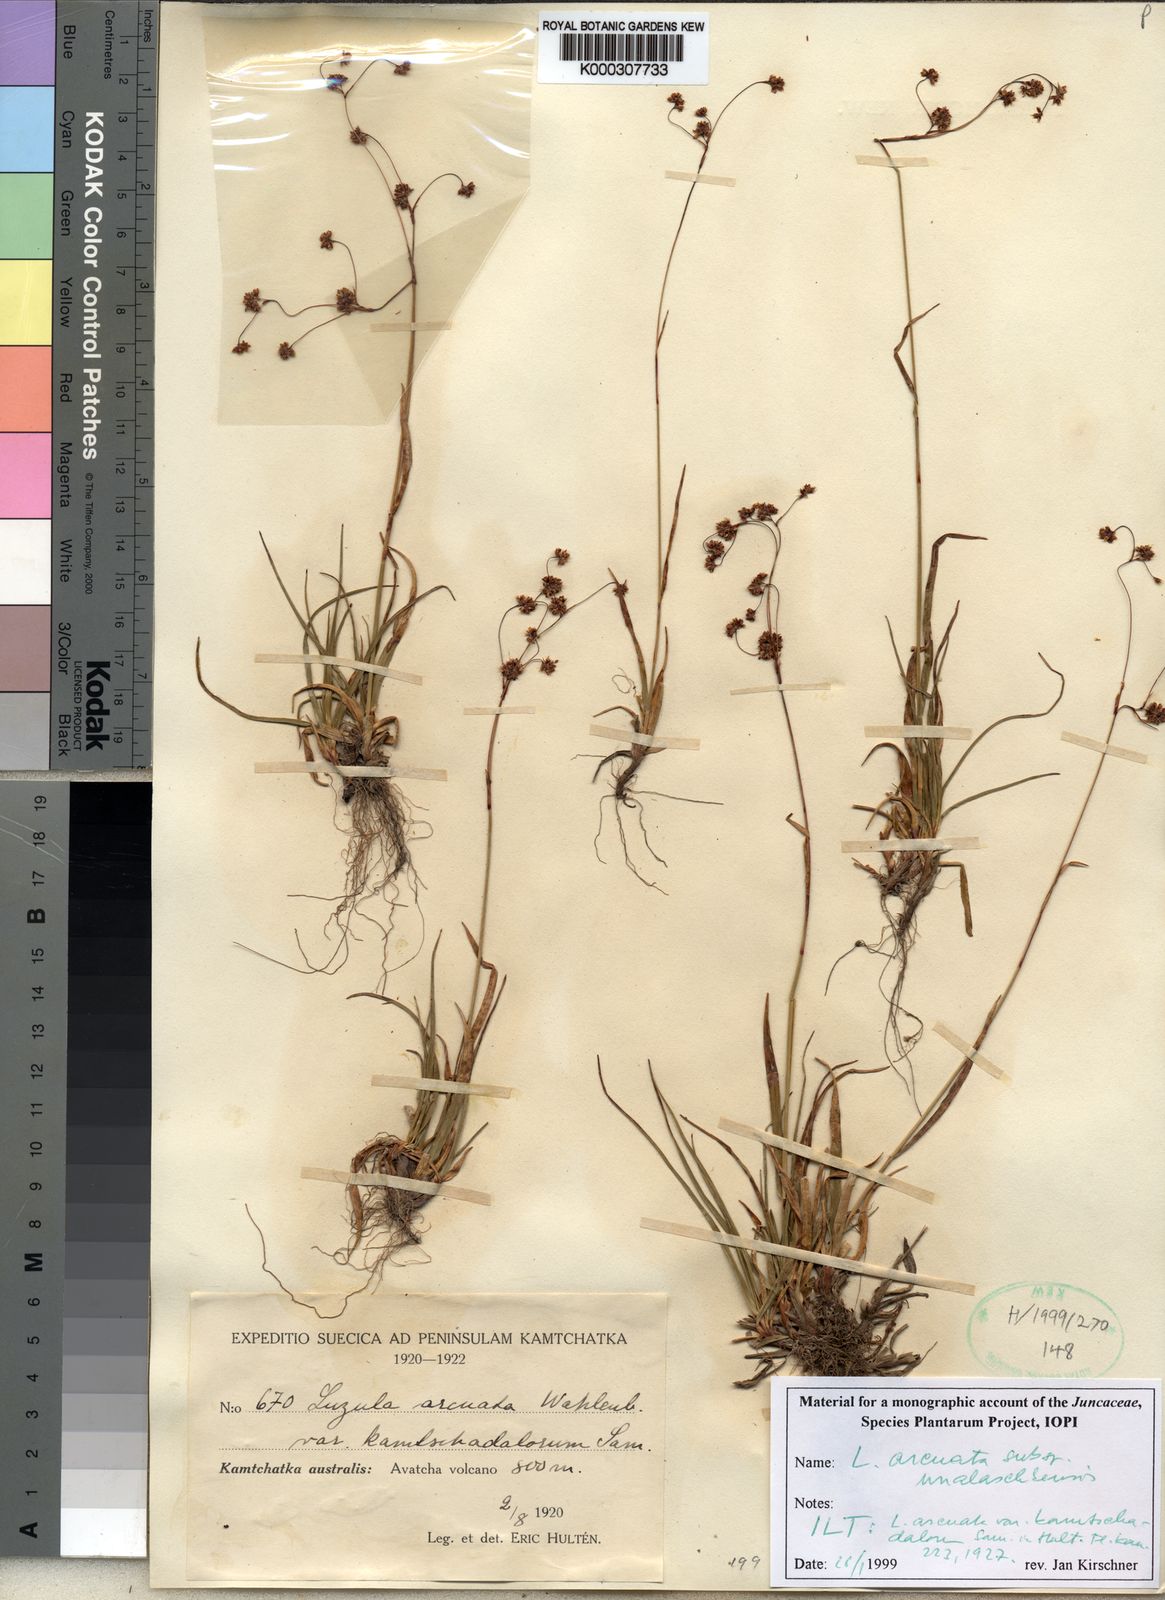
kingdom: Plantae
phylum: Tracheophyta
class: Liliopsida
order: Poales
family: Juncaceae
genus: Luzula
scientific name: Luzula arcuata
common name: Curved wood-rush
